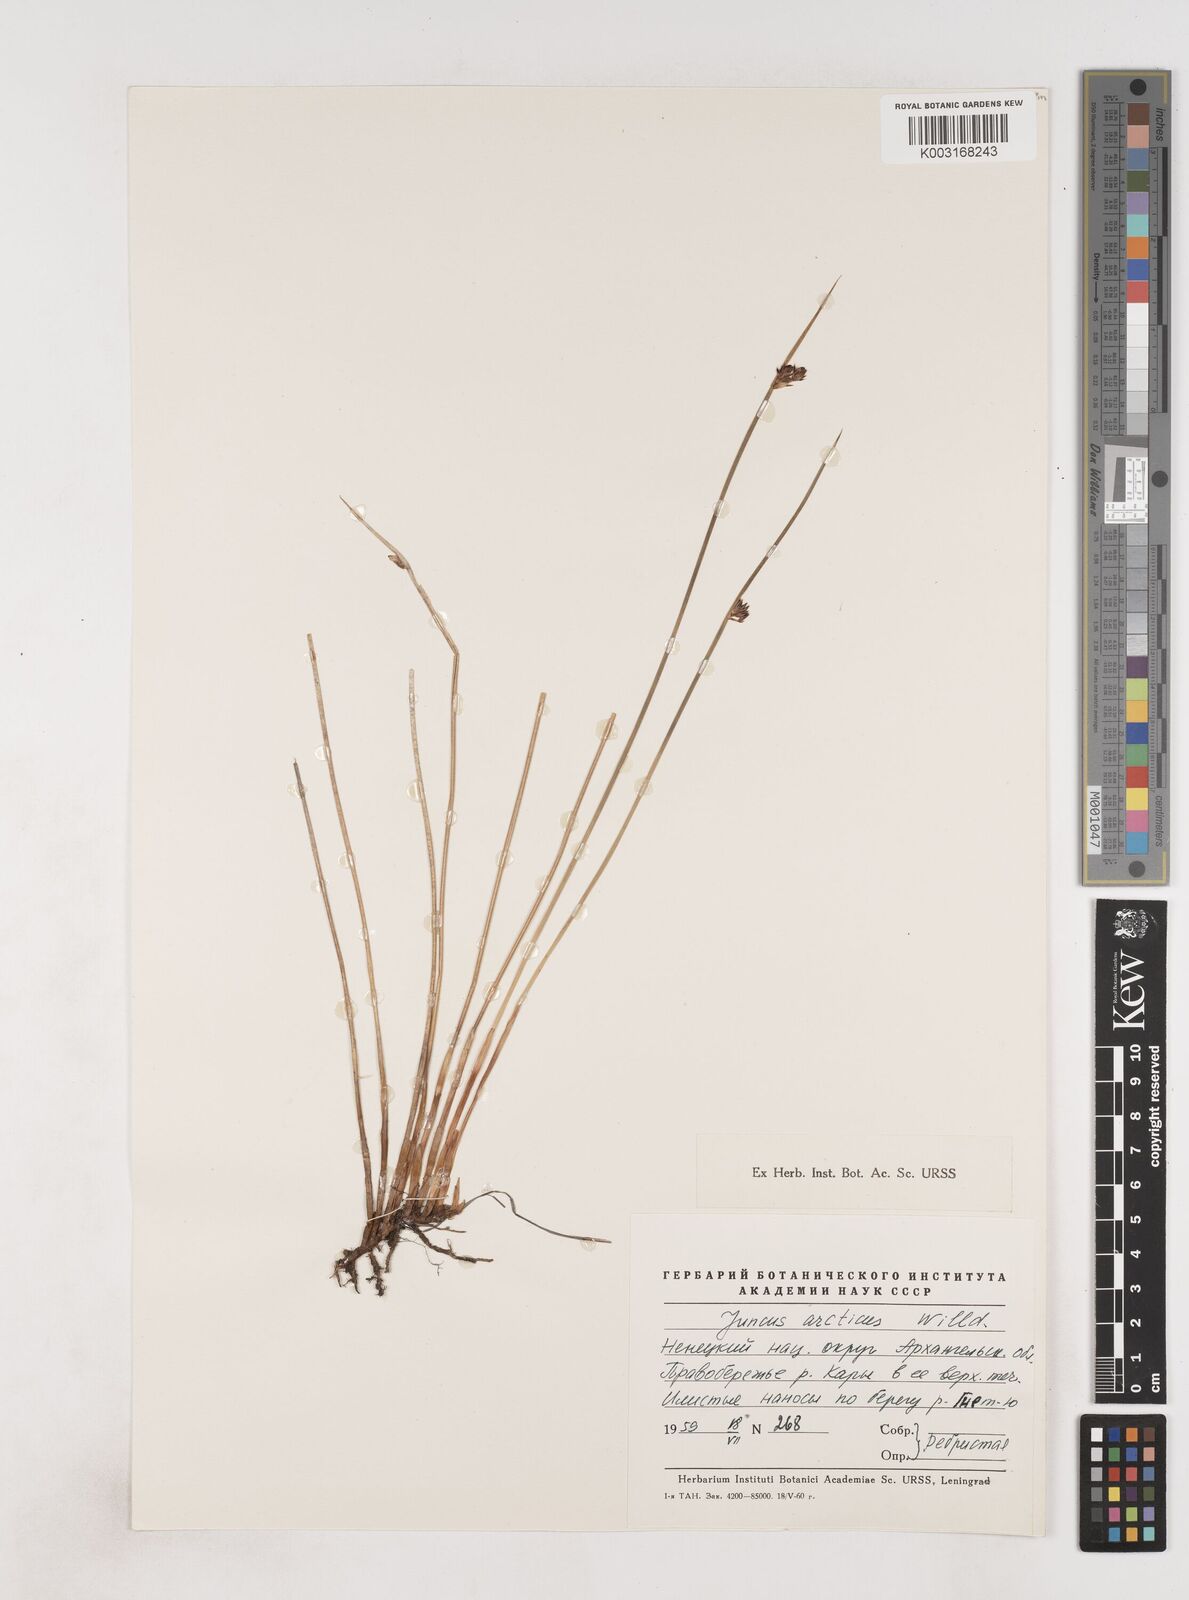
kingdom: Plantae
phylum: Tracheophyta
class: Liliopsida
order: Poales
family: Juncaceae
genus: Juncus
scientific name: Juncus arcticus
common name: Arctic rush
